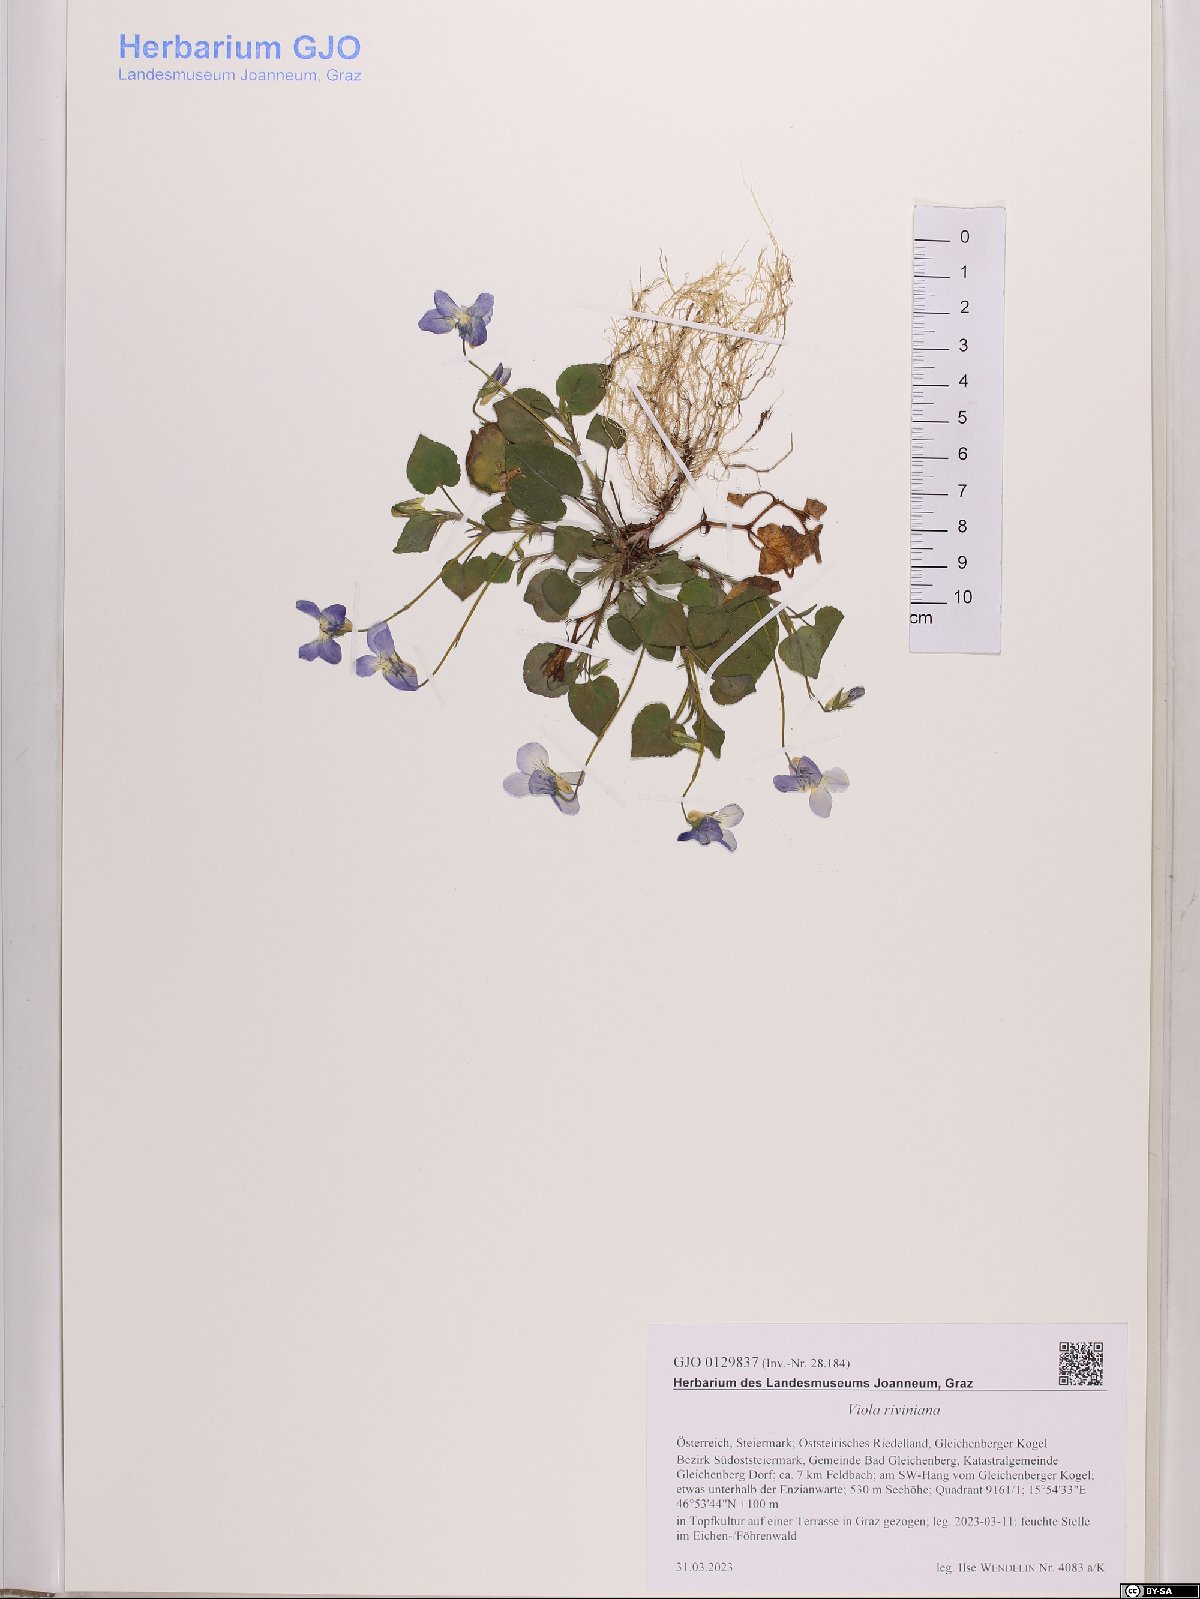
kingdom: Plantae
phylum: Tracheophyta
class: Magnoliopsida
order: Malpighiales
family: Violaceae
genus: Viola
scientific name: Viola riviniana
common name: Common dog-violet
